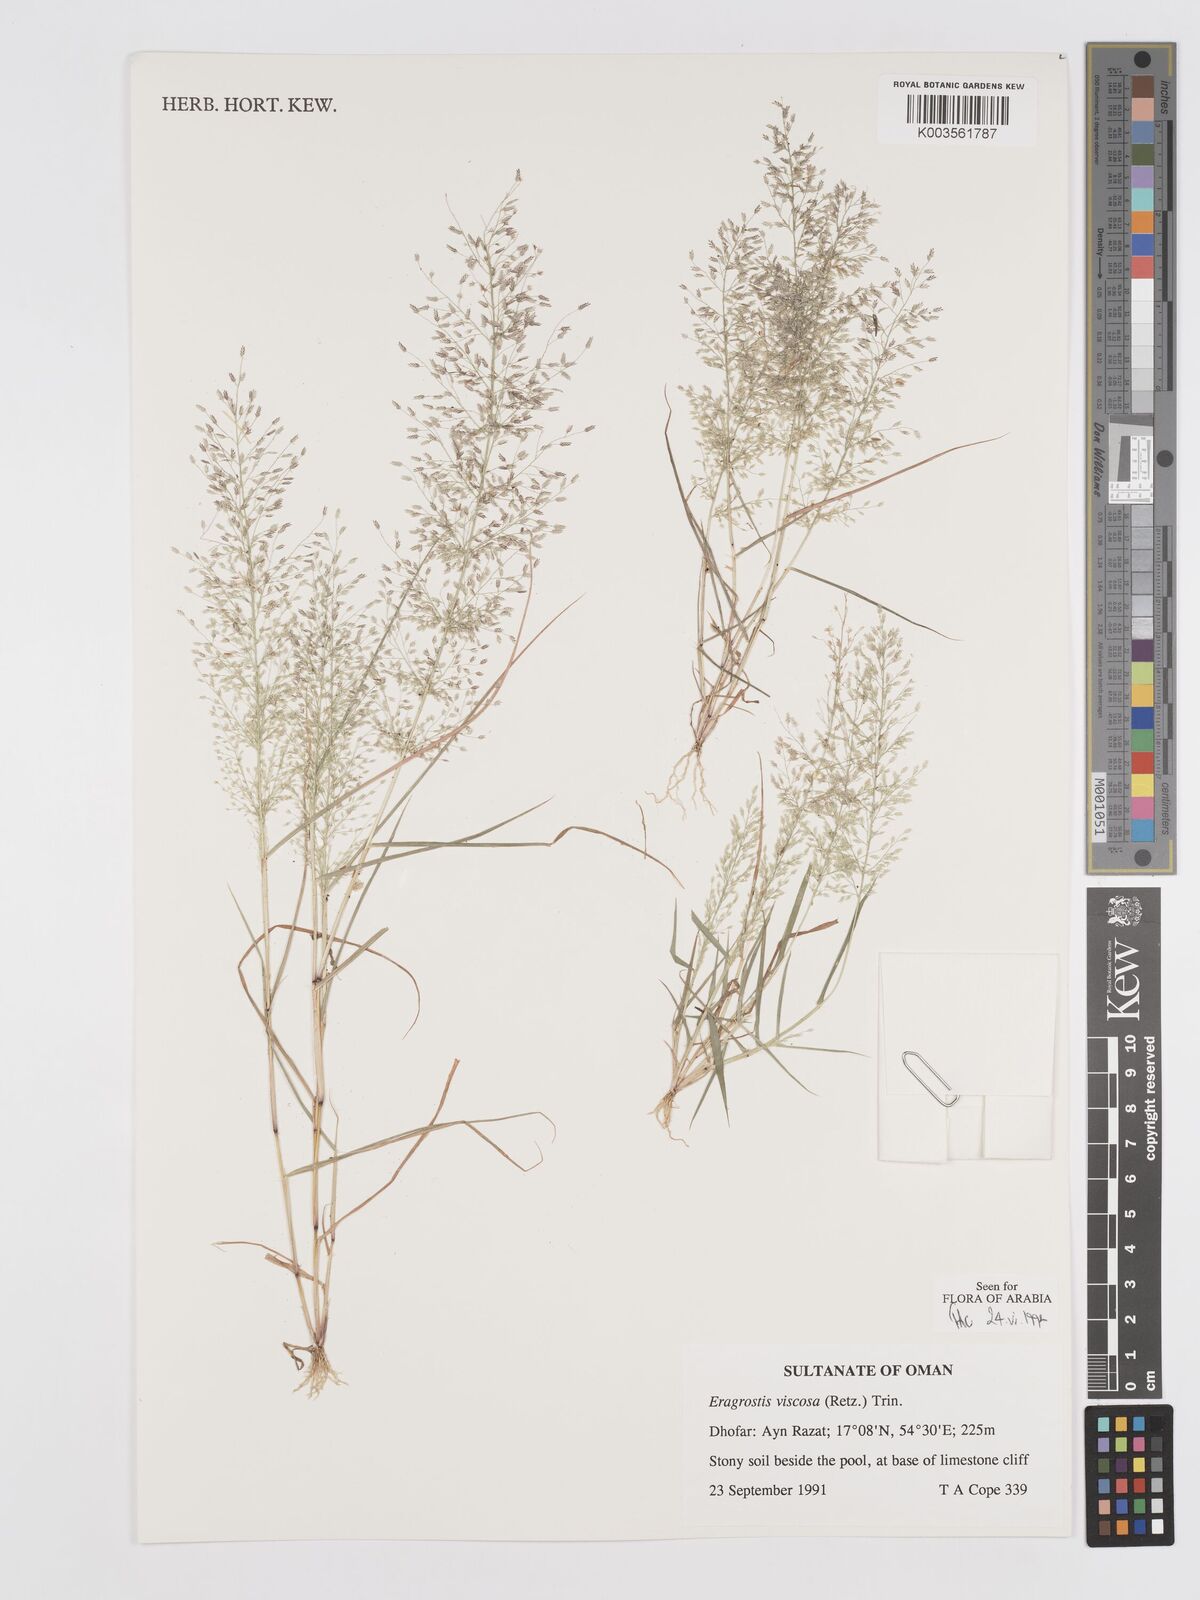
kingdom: Plantae
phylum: Tracheophyta
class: Liliopsida
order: Poales
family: Poaceae
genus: Eragrostis
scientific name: Eragrostis viscosa
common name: Sticky love grass
